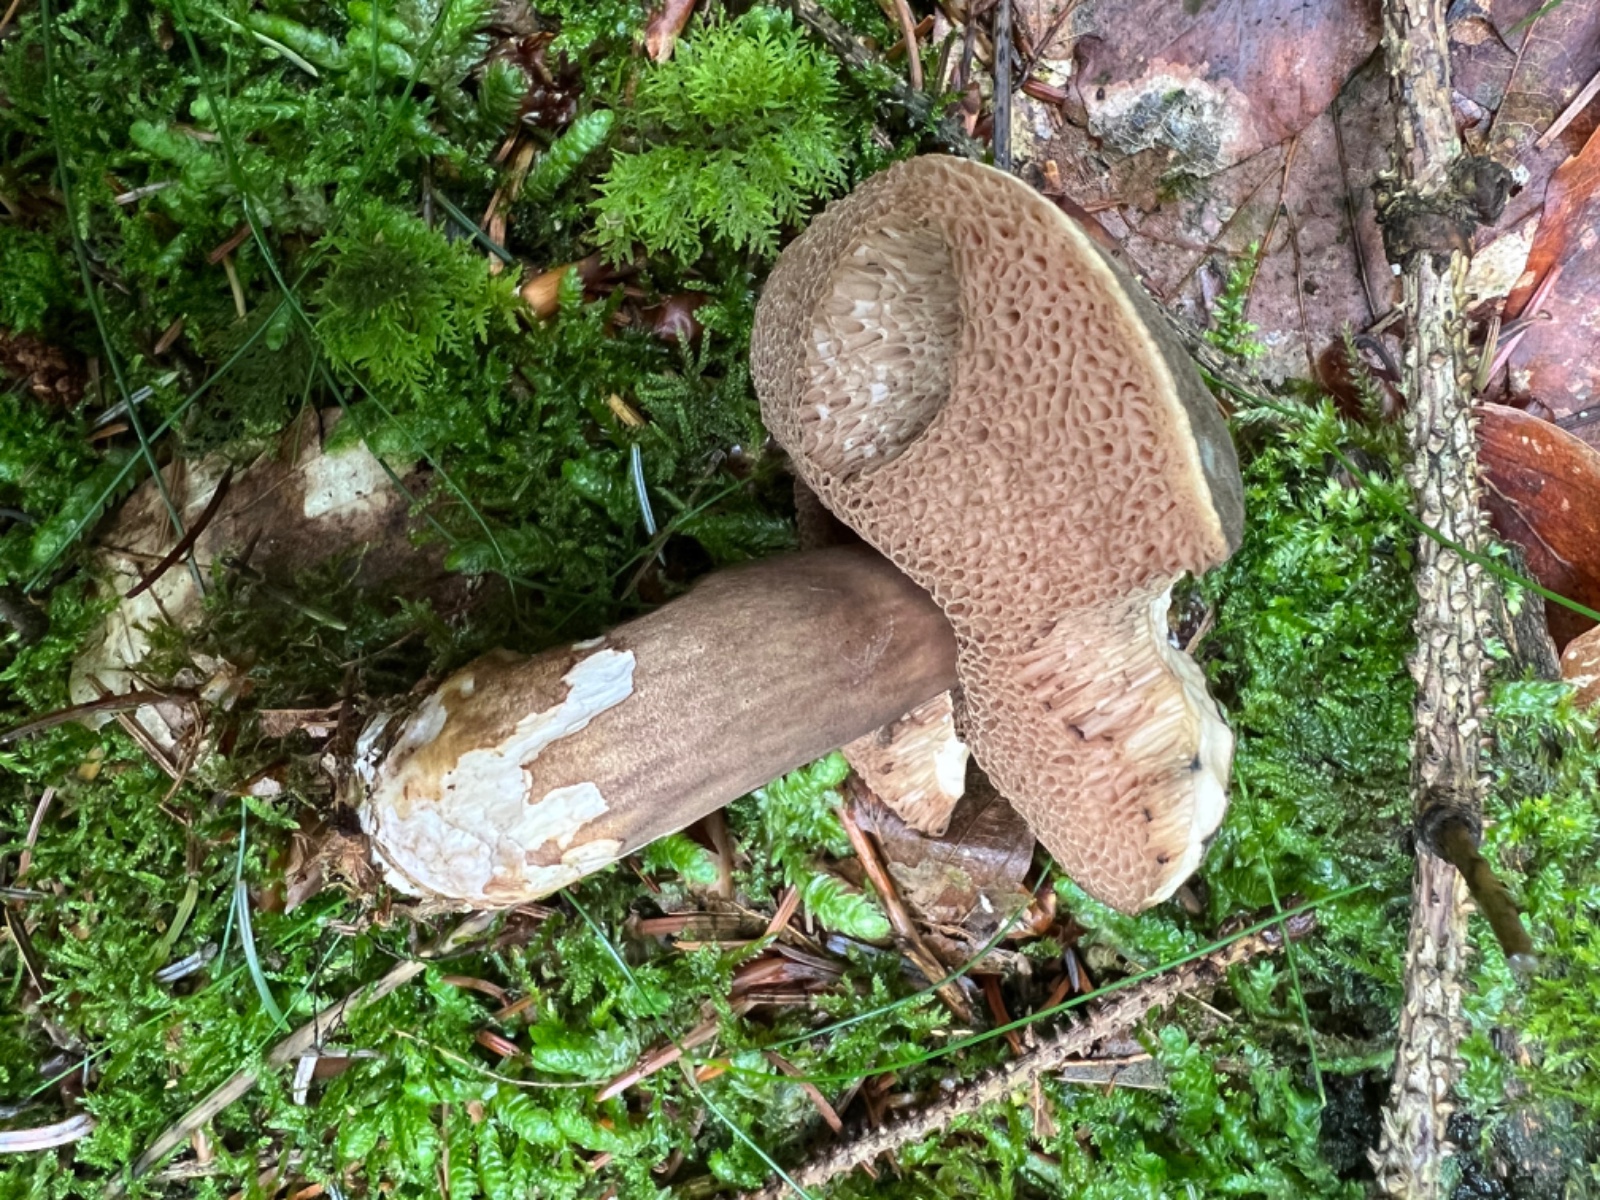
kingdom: Fungi
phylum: Basidiomycota
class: Agaricomycetes
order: Boletales
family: Boletaceae
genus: Porphyrellus
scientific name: Porphyrellus porphyrosporus
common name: sodrørhat
